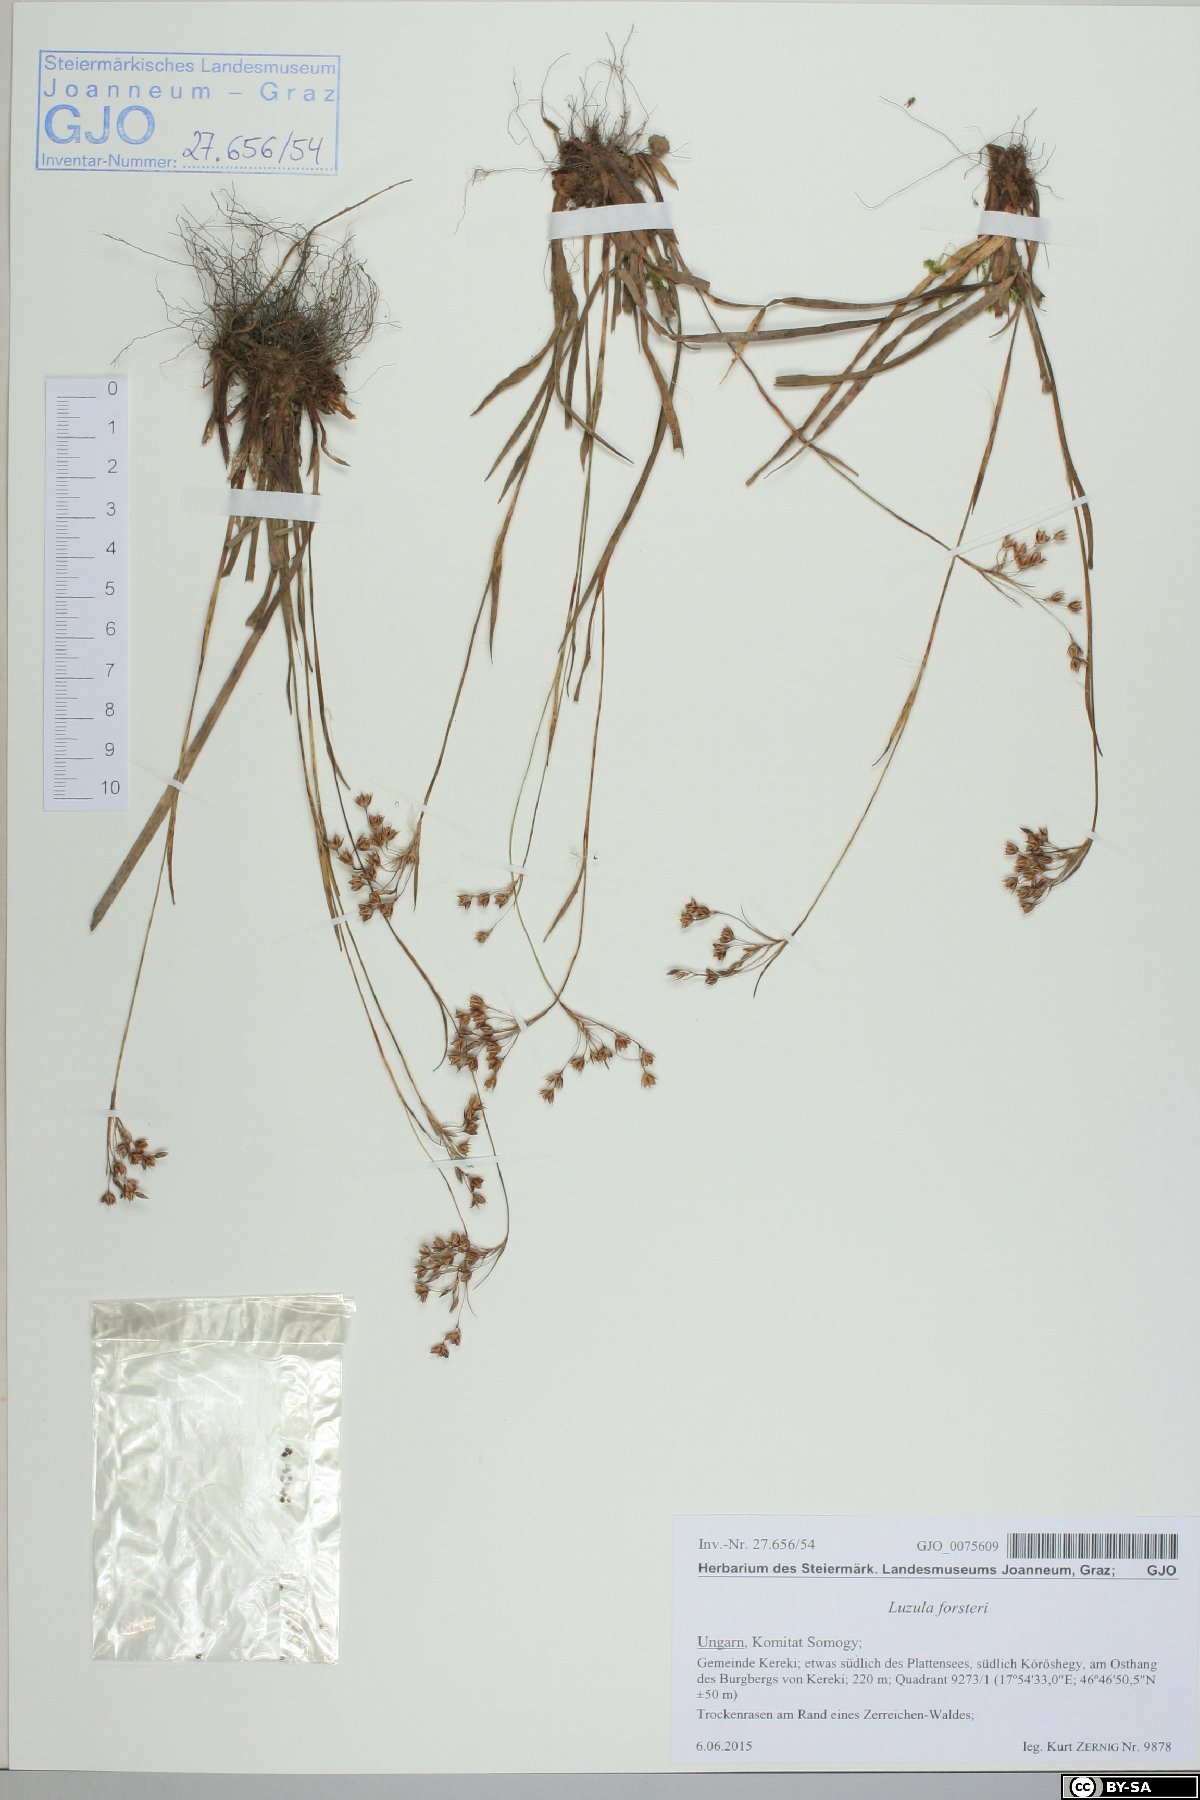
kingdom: Plantae
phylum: Tracheophyta
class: Liliopsida
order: Poales
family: Juncaceae
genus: Luzula
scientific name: Luzula forsteri
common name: Southern wood-rush
